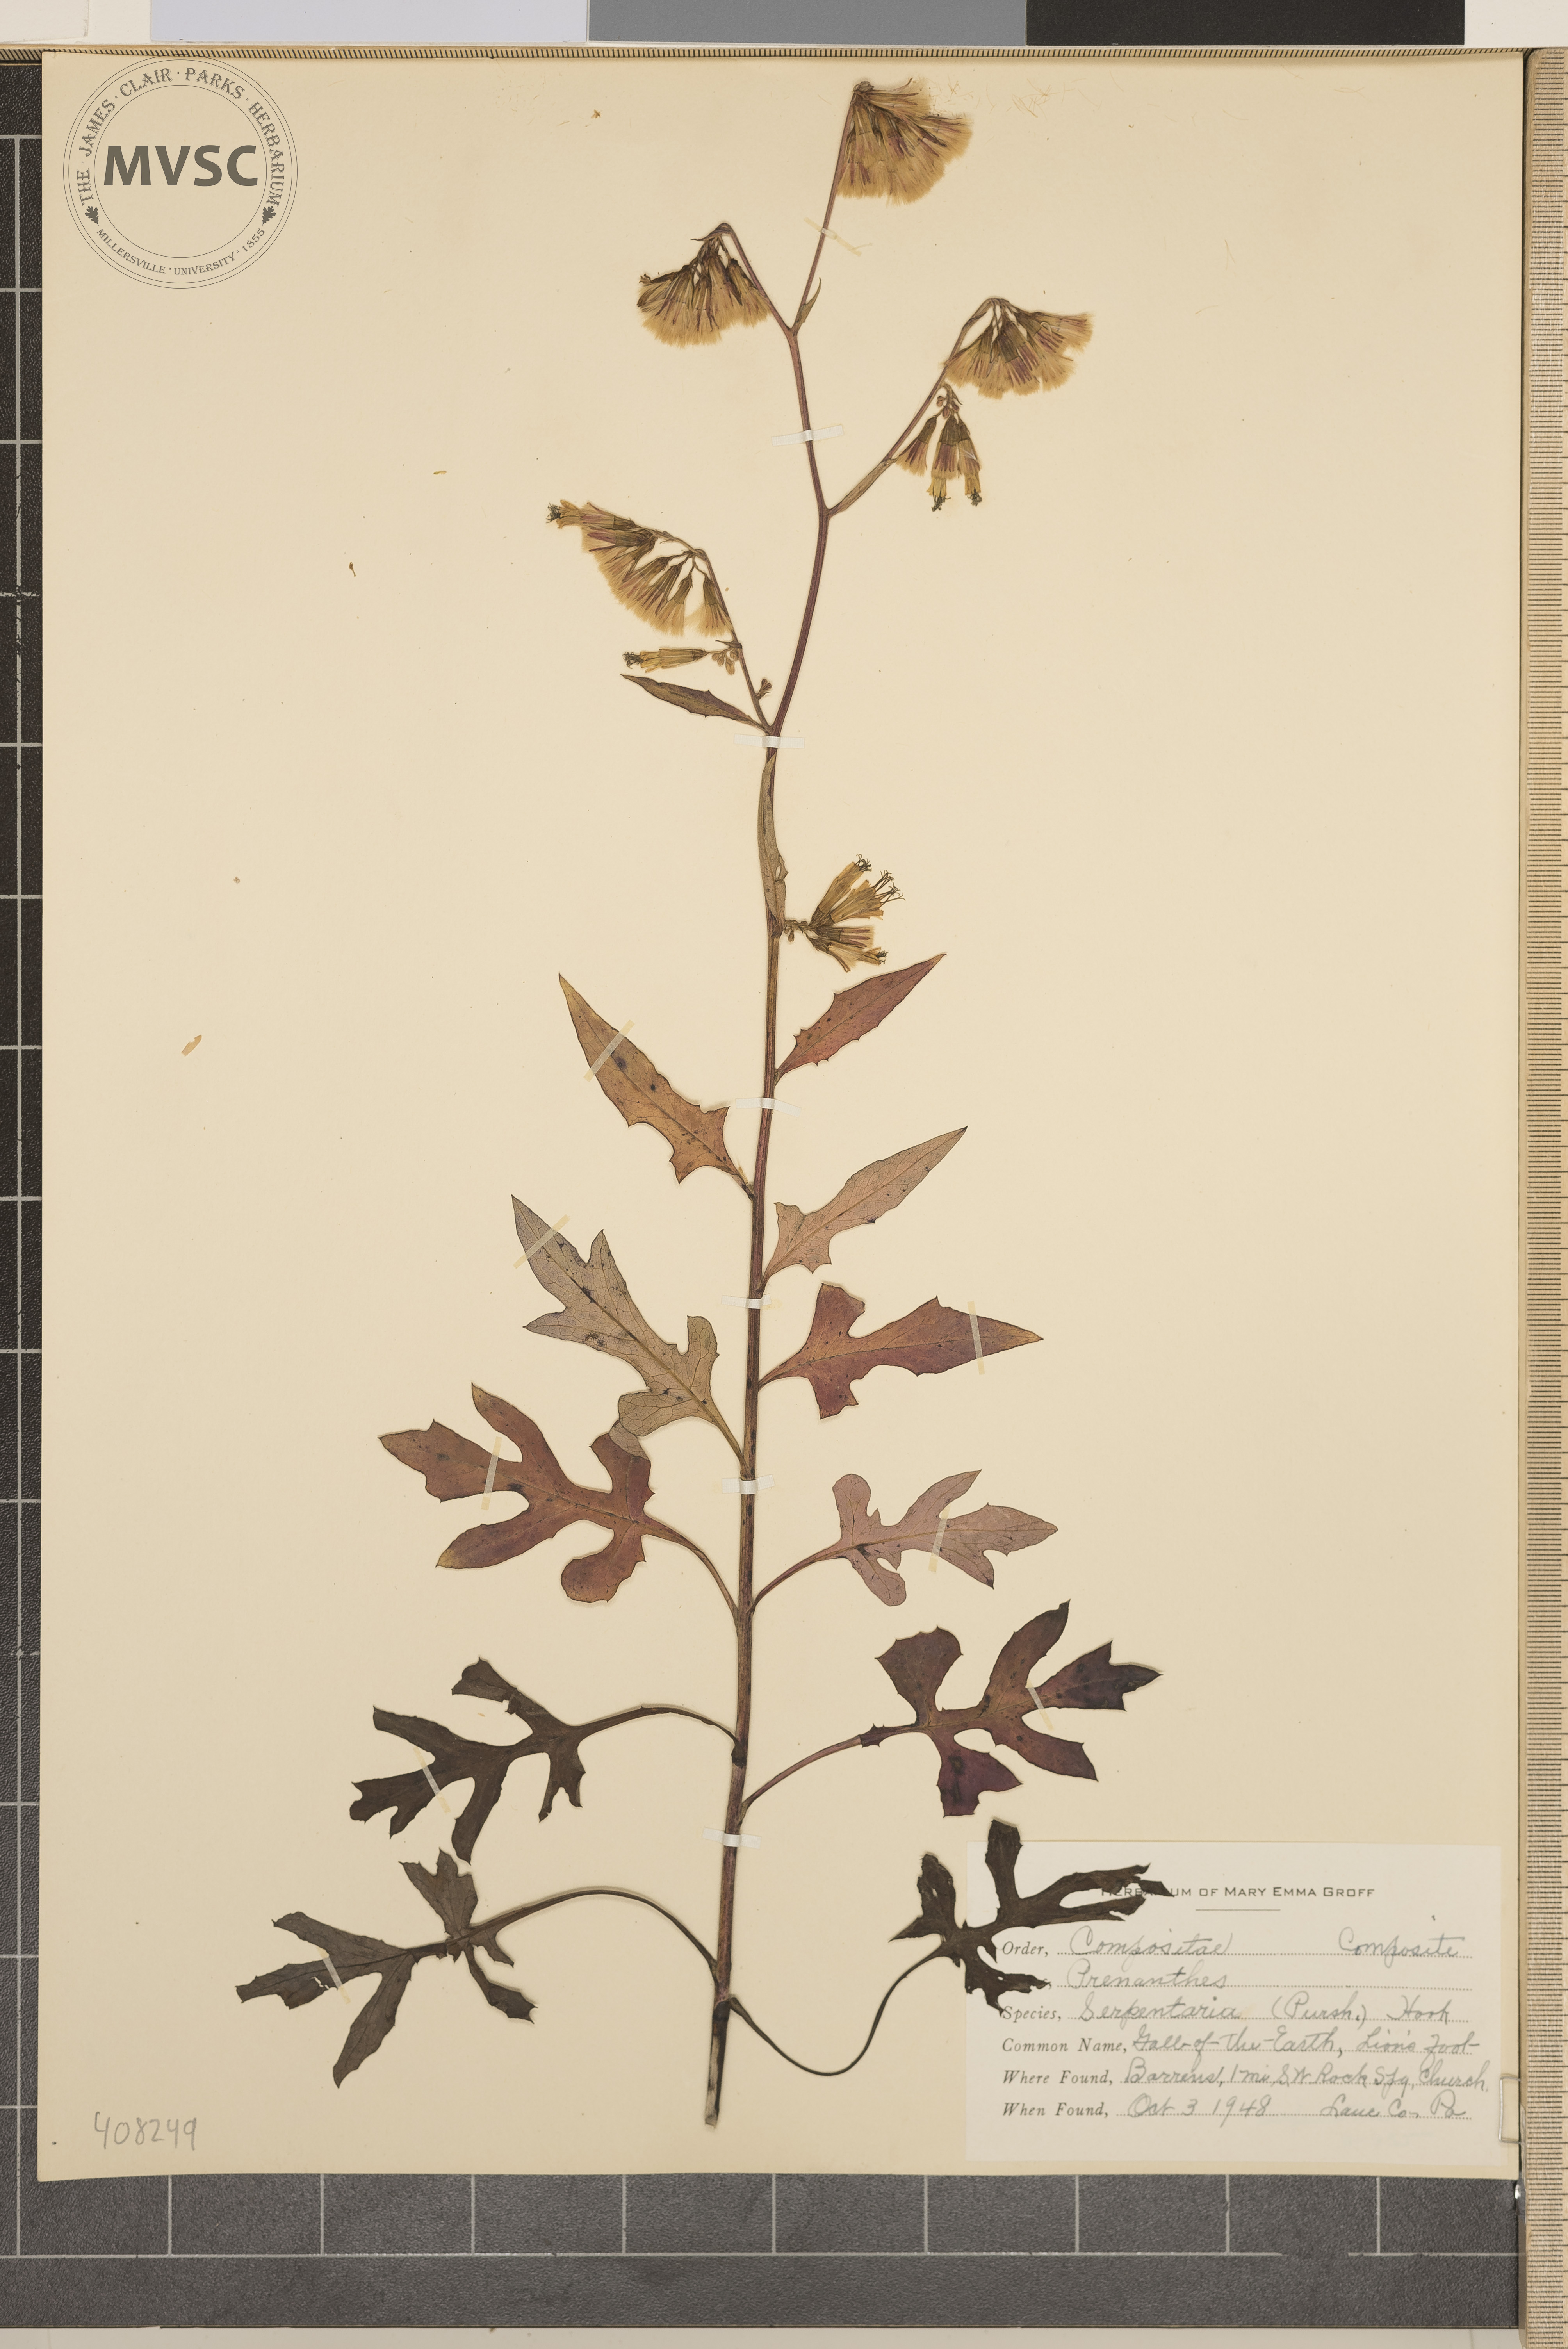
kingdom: Plantae
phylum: Tracheophyta
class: Magnoliopsida
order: Asterales
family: Asteraceae
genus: Nabalus
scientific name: Nabalus serpentarius
